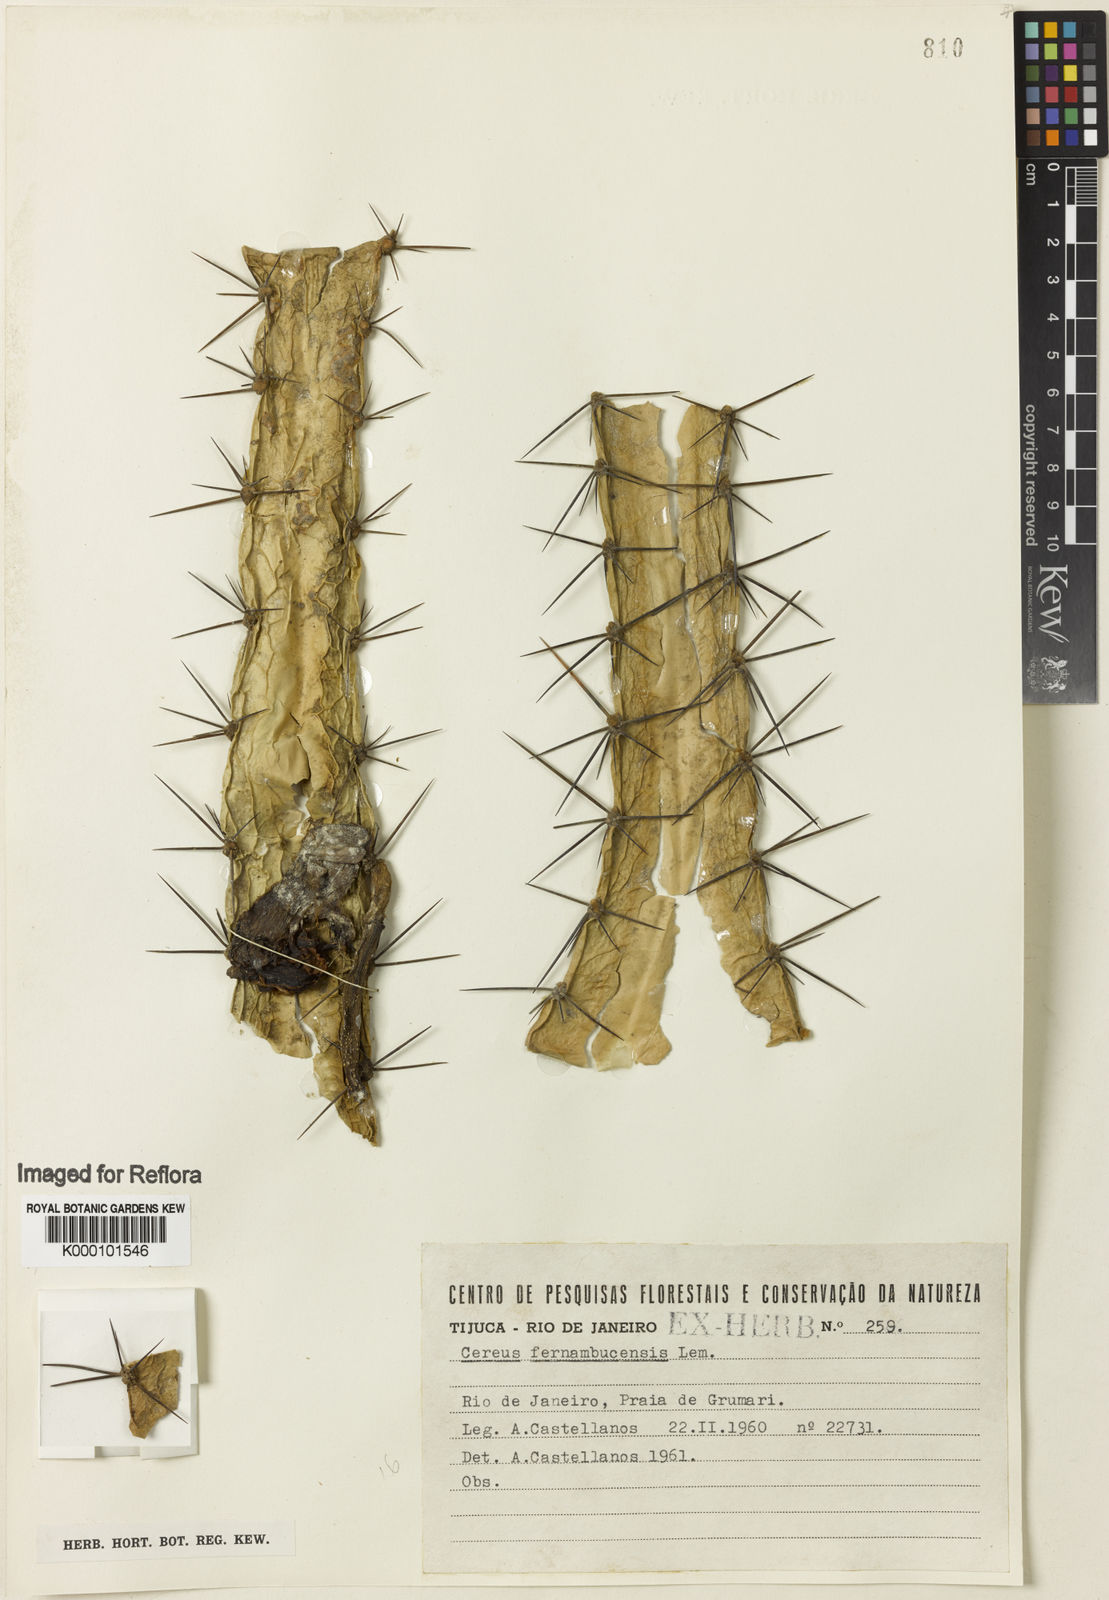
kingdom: Plantae
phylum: Tracheophyta
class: Magnoliopsida
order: Caryophyllales
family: Cactaceae
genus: Cereus
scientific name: Cereus
